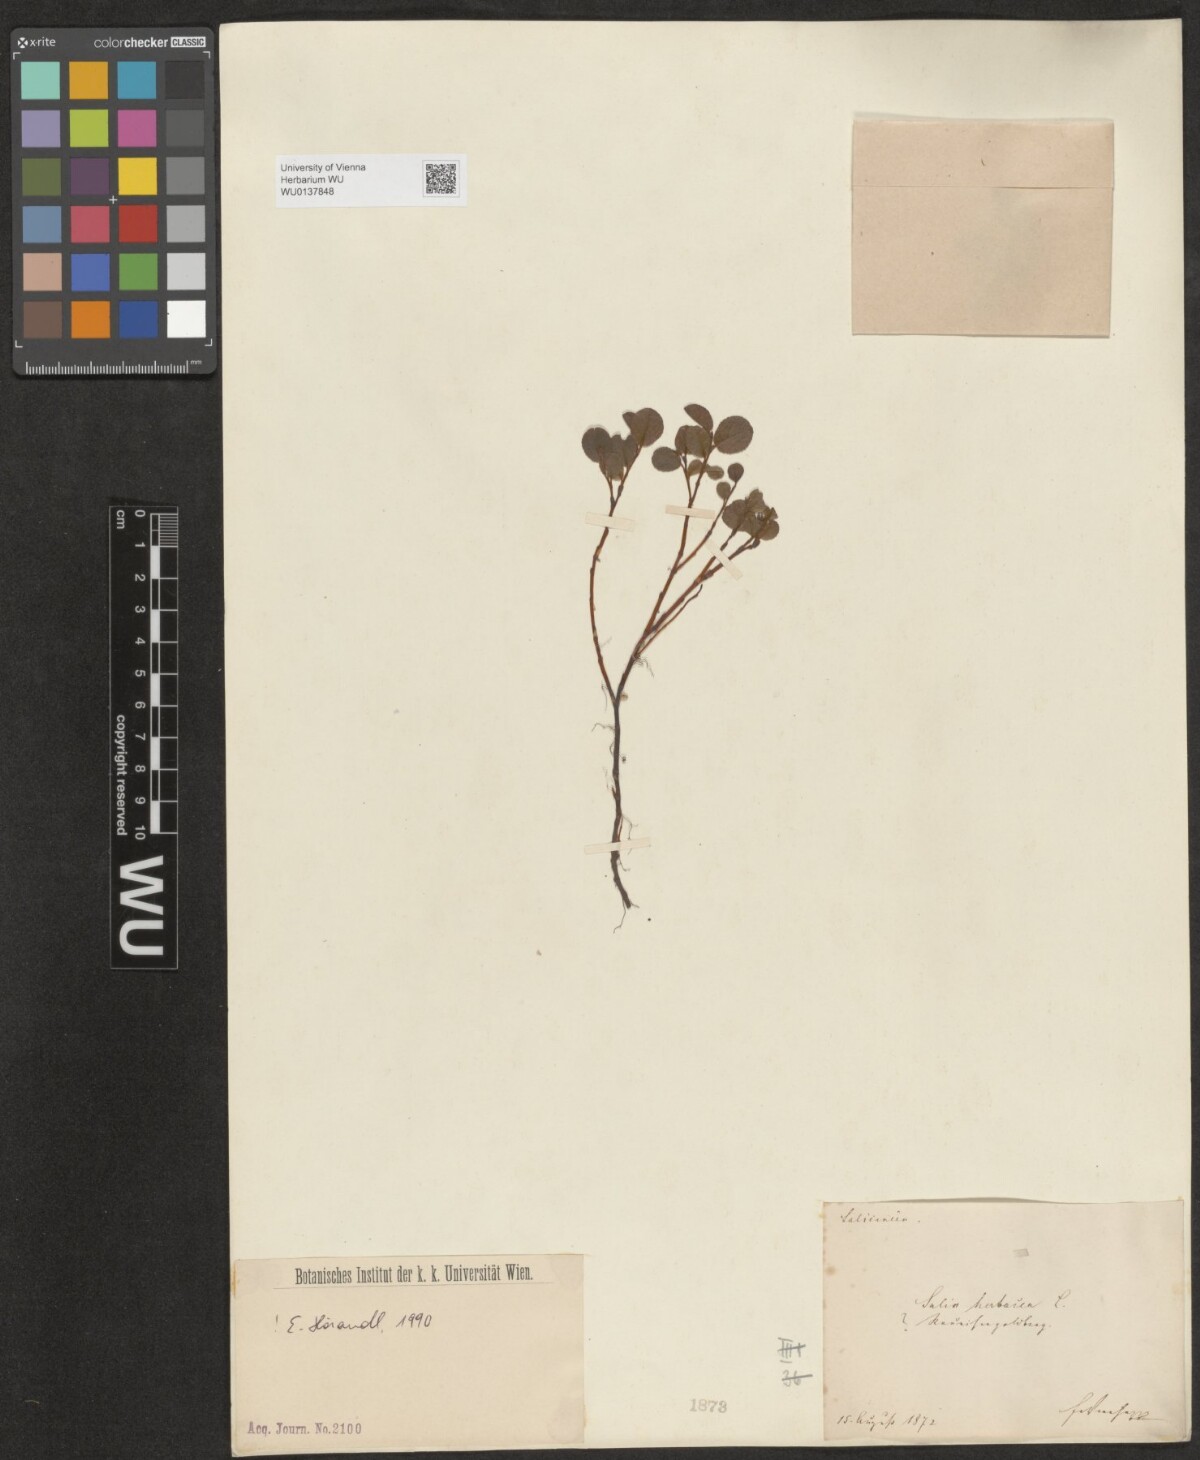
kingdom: Plantae
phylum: Tracheophyta
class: Magnoliopsida
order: Malpighiales
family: Salicaceae
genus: Salix
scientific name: Salix herbacea
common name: Dwarf willow
